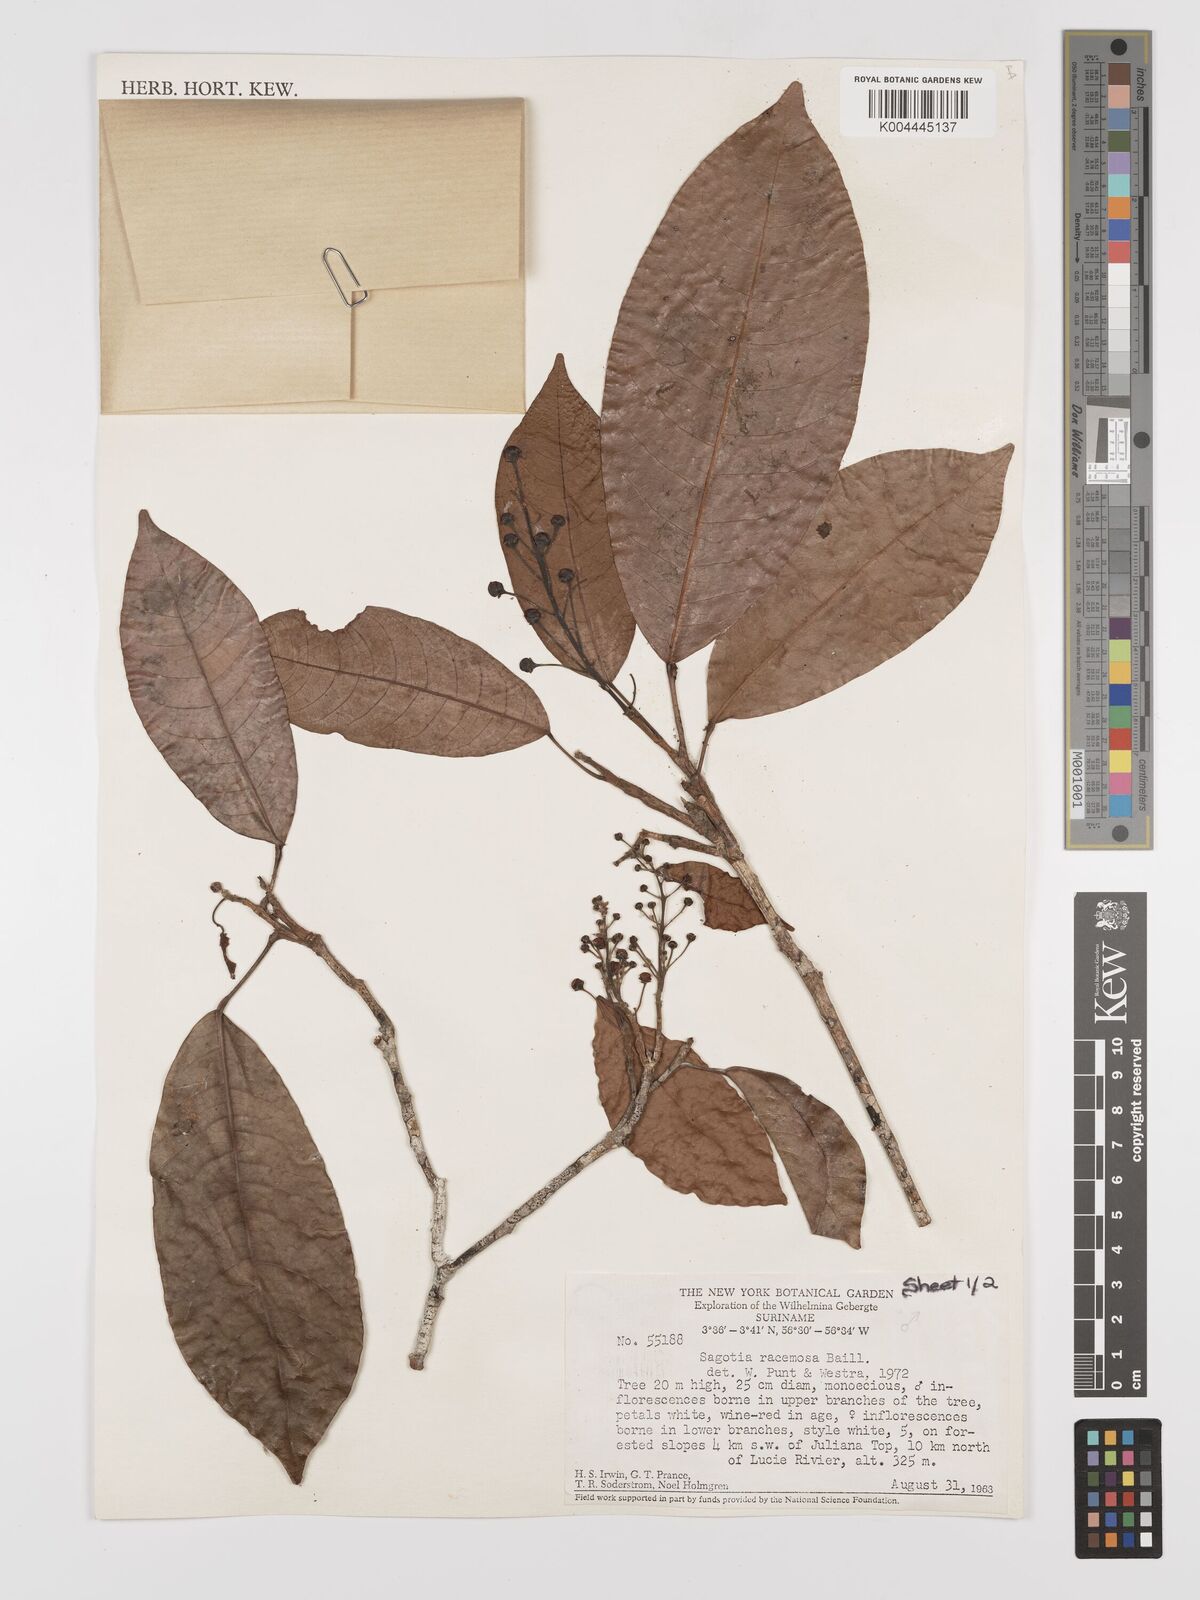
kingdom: Plantae
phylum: Tracheophyta
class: Magnoliopsida
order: Malpighiales
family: Euphorbiaceae
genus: Sagotia
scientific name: Sagotia racemosa
